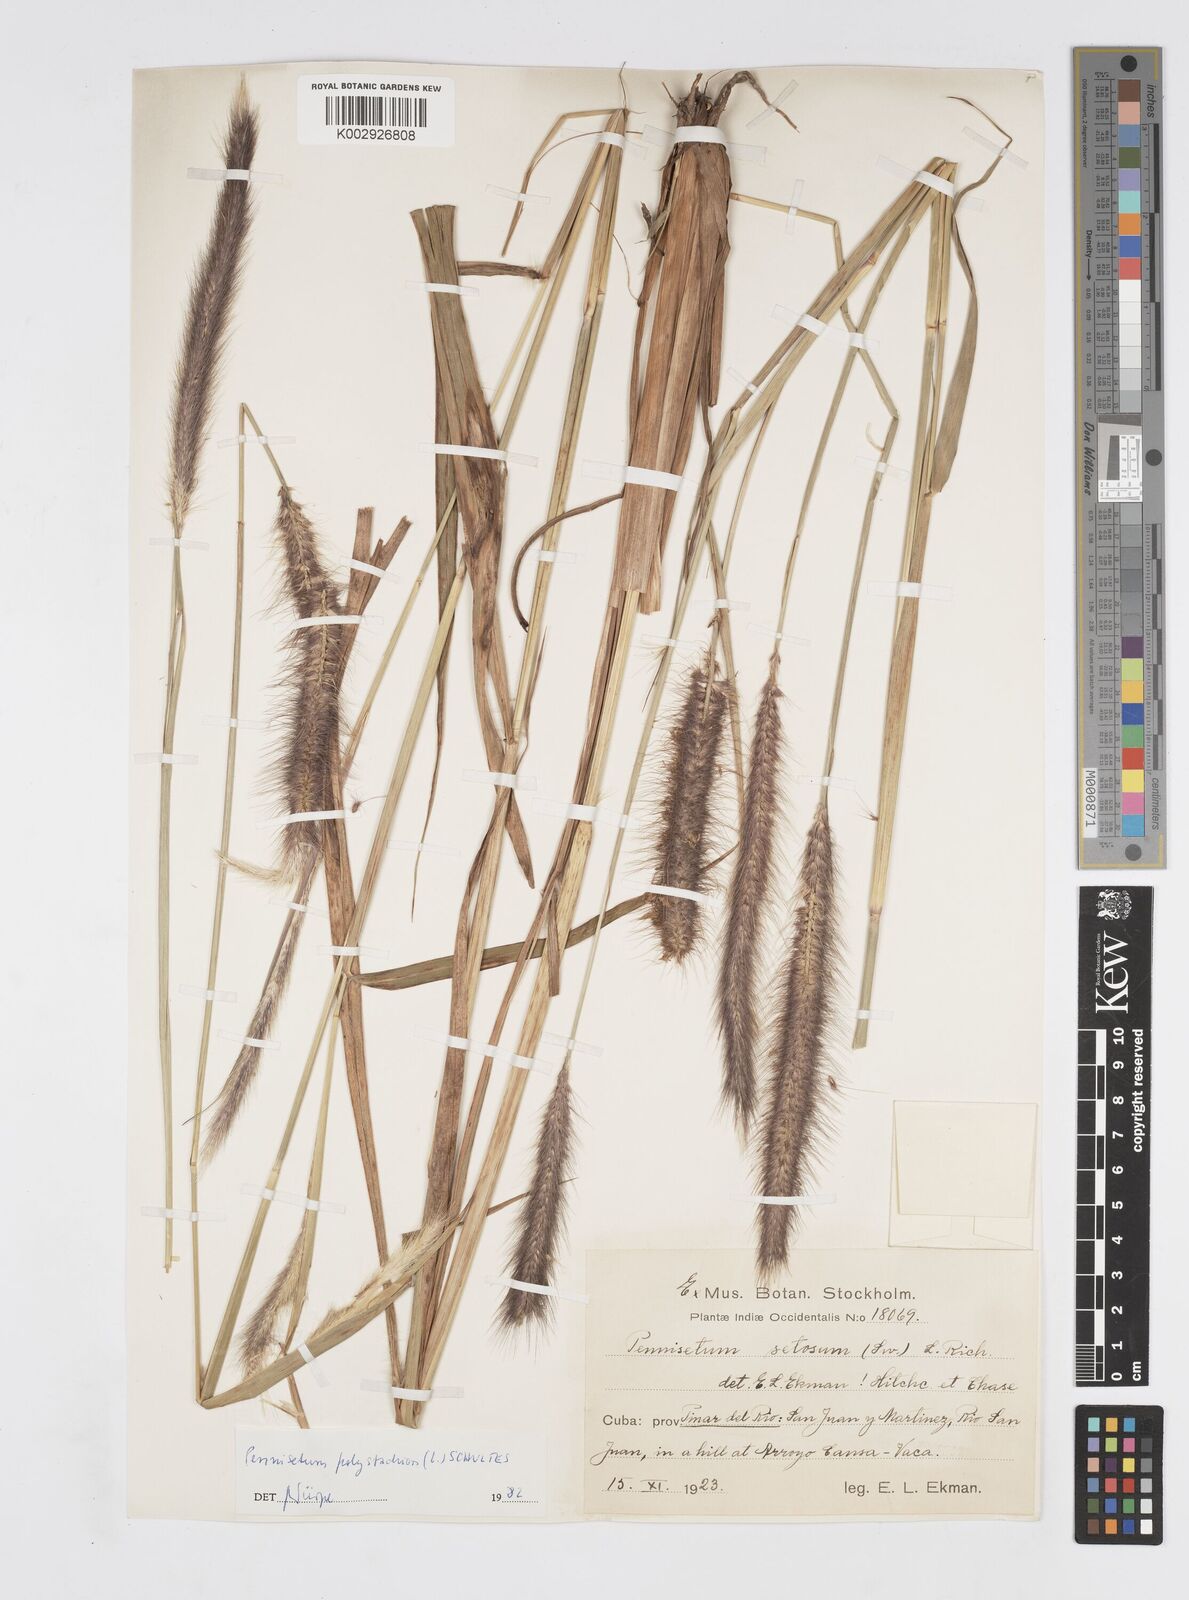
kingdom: Plantae
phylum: Tracheophyta
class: Liliopsida
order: Poales
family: Poaceae
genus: Setaria
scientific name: Setaria parviflora
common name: Knotroot bristle-grass
